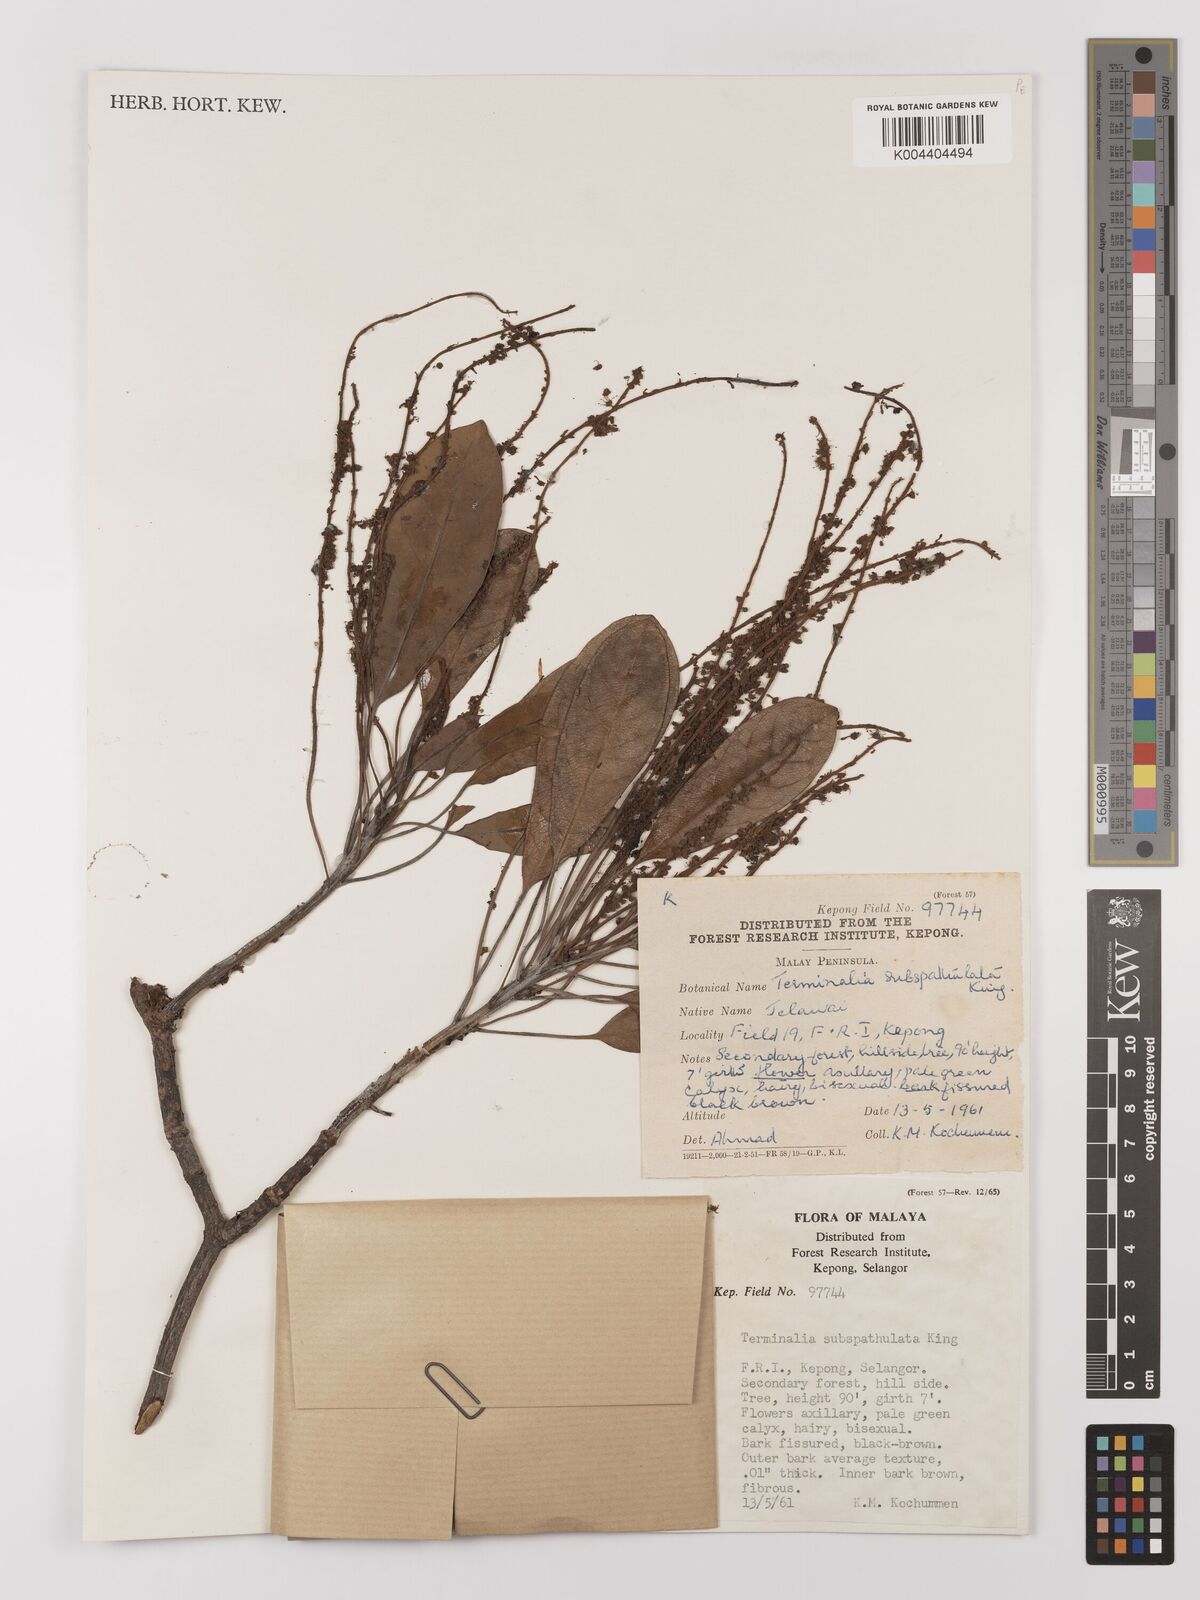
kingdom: Plantae
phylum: Tracheophyta
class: Magnoliopsida
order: Myrtales
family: Combretaceae
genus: Terminalia
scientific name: Terminalia subspathulata
